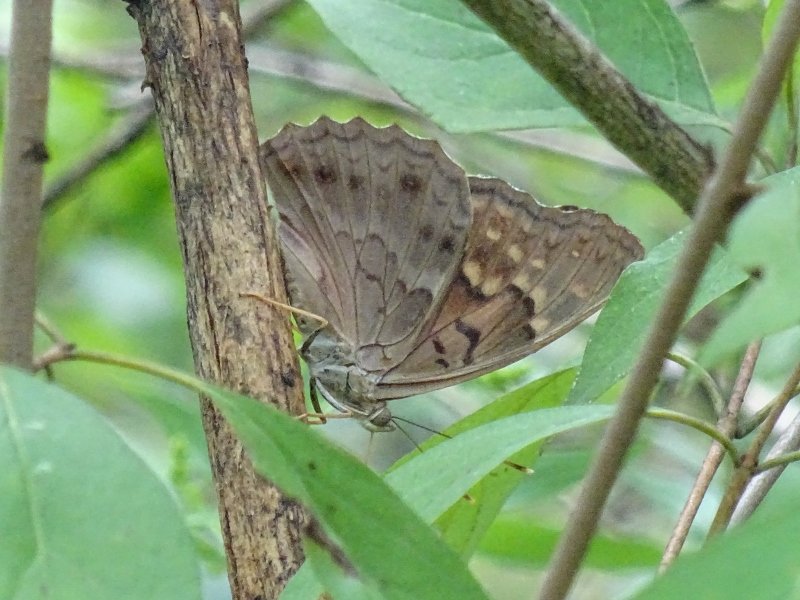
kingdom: Animalia
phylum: Arthropoda
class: Insecta
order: Lepidoptera
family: Nymphalidae
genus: Asterocampa
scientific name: Asterocampa clyton
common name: Tawny Emperor
